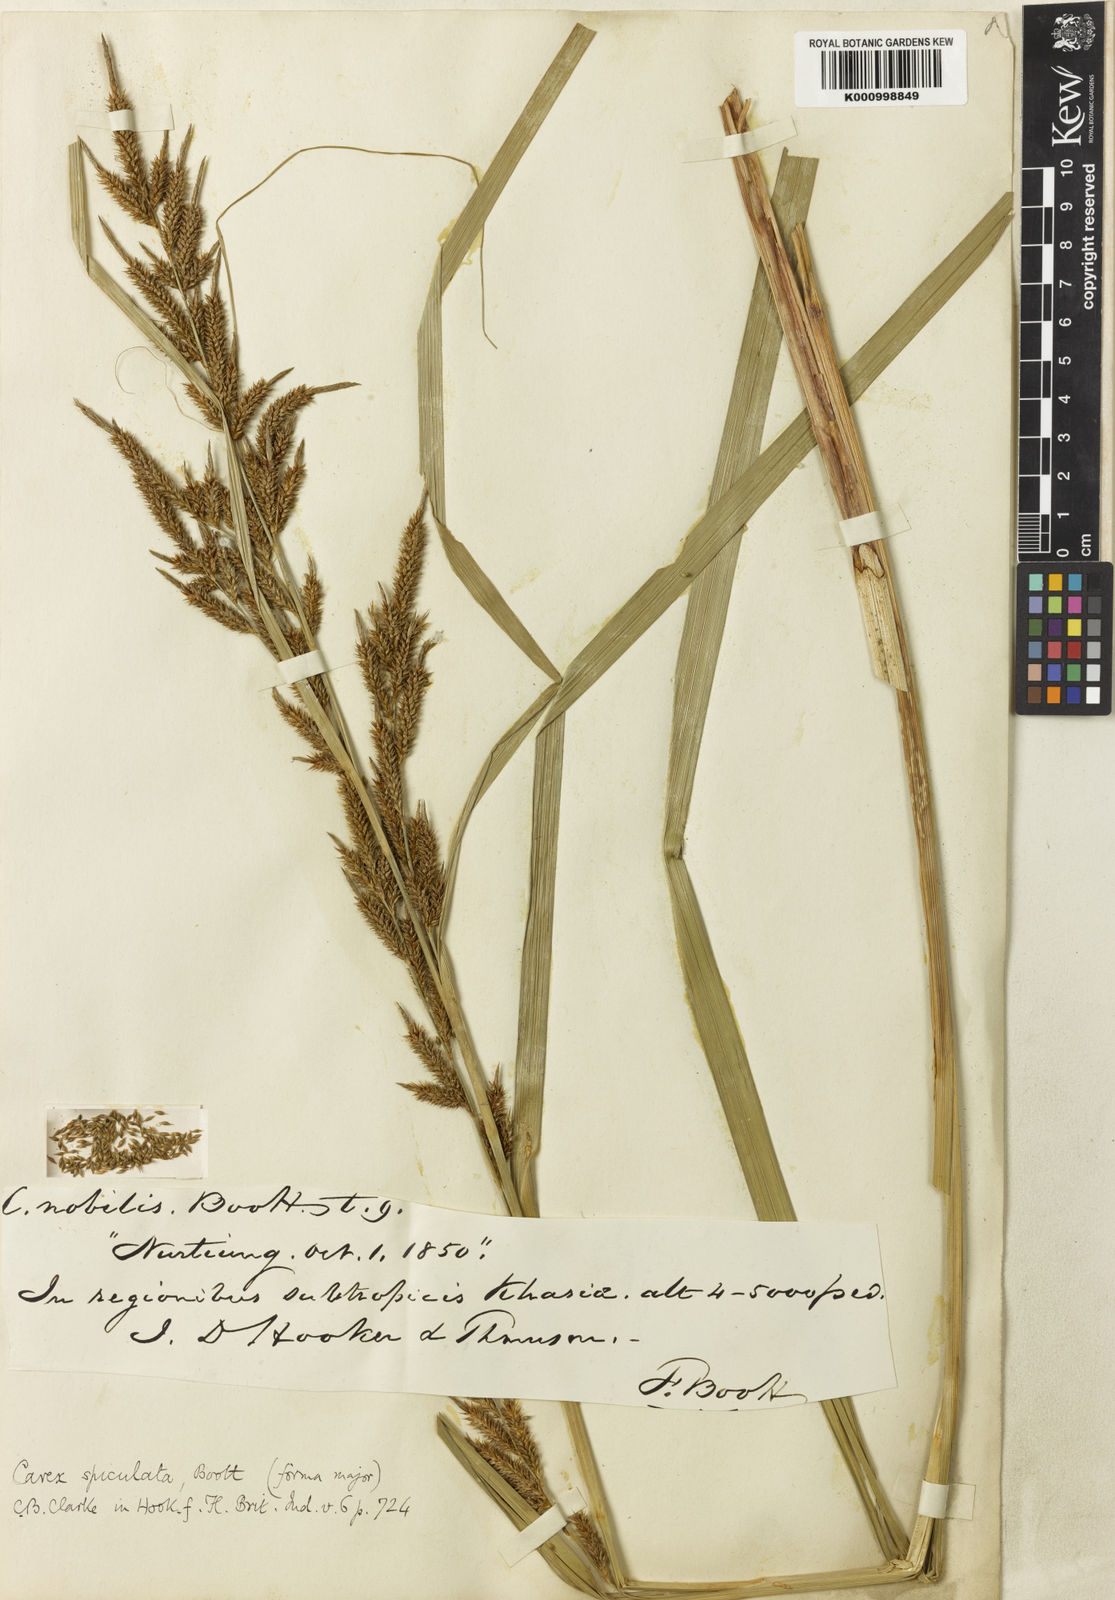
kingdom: Plantae
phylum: Tracheophyta
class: Liliopsida
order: Poales
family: Cyperaceae
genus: Carex
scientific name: Carex myosurus
